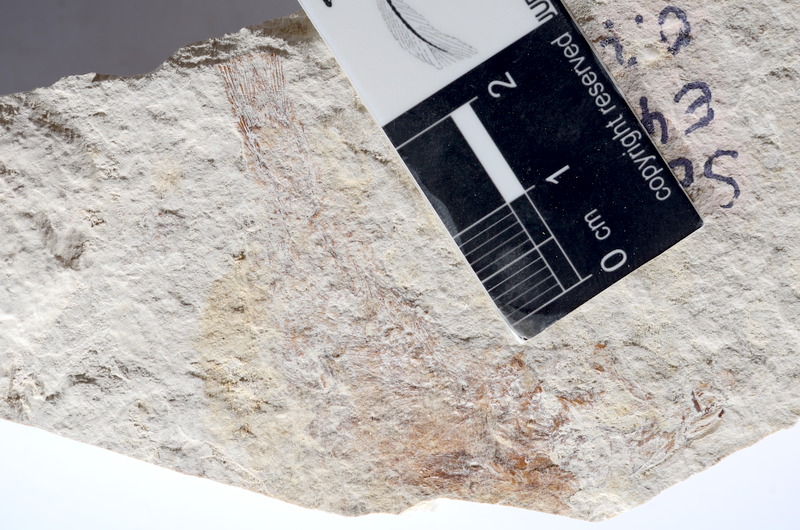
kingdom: Animalia
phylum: Chordata
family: Ascalaboidae
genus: Tharsis
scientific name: Tharsis dubius
